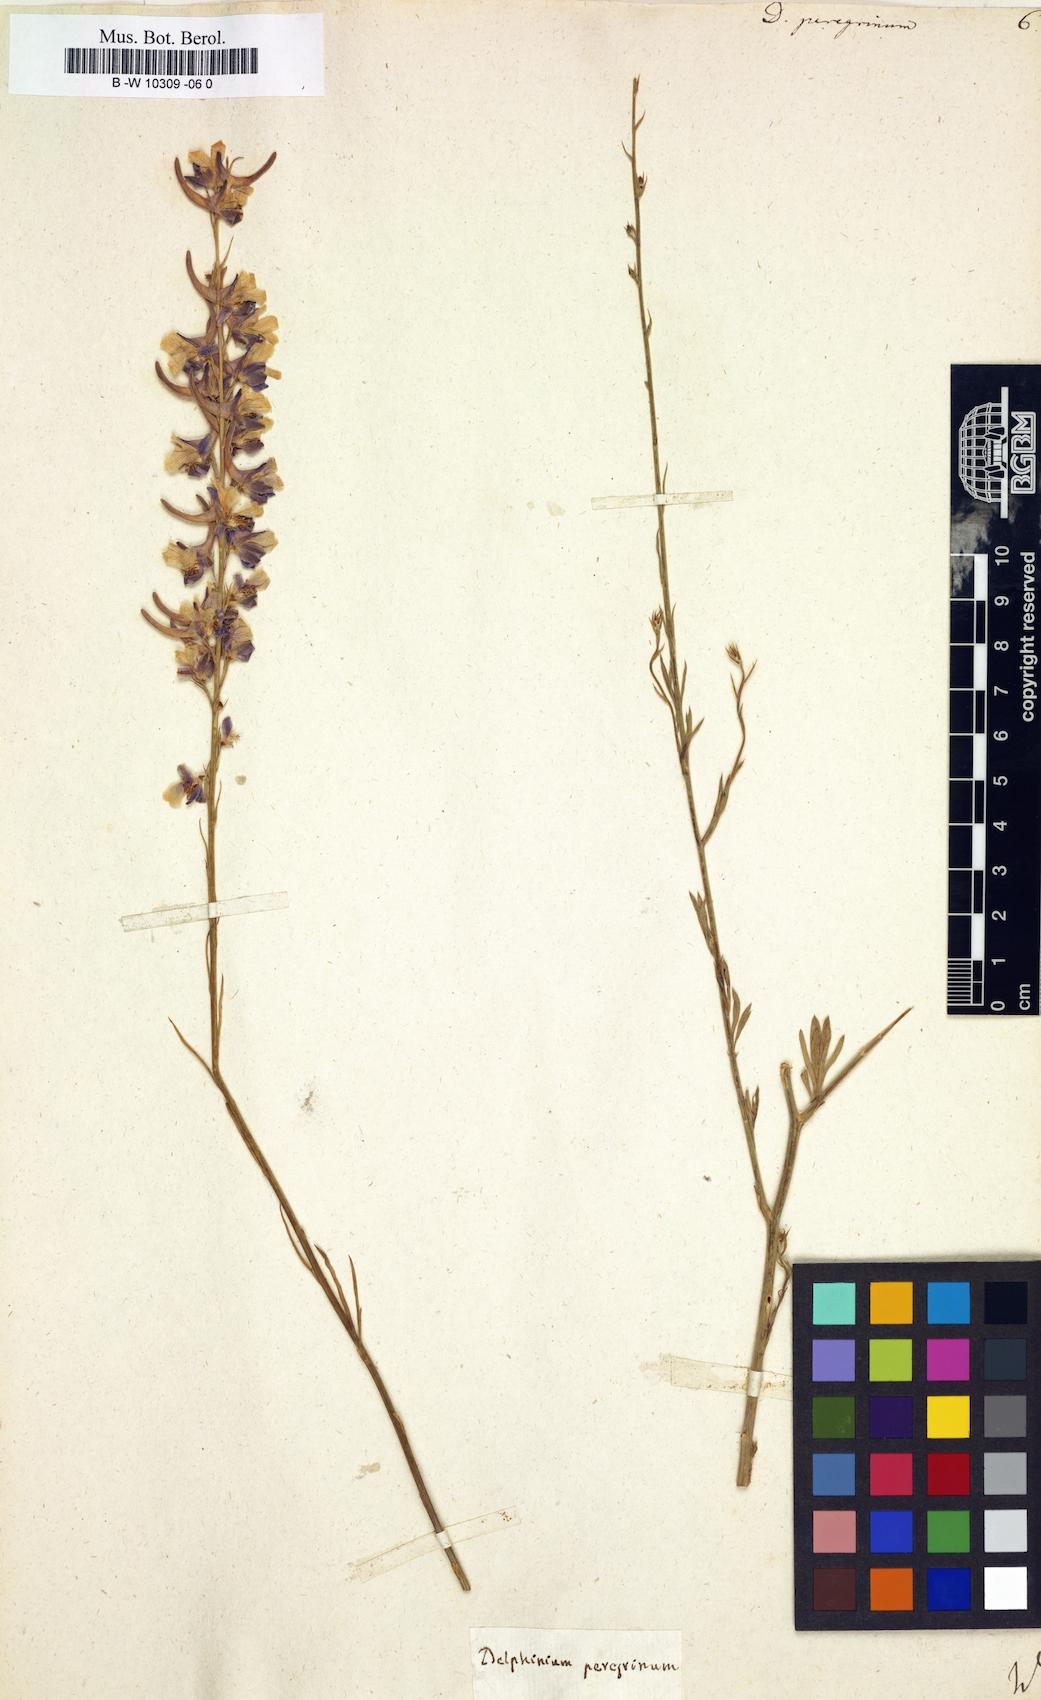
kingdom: Plantae
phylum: Tracheophyta
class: Magnoliopsida
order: Ranunculales
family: Ranunculaceae
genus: Delphinium
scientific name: Delphinium peregrinum
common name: Violet larkspur
